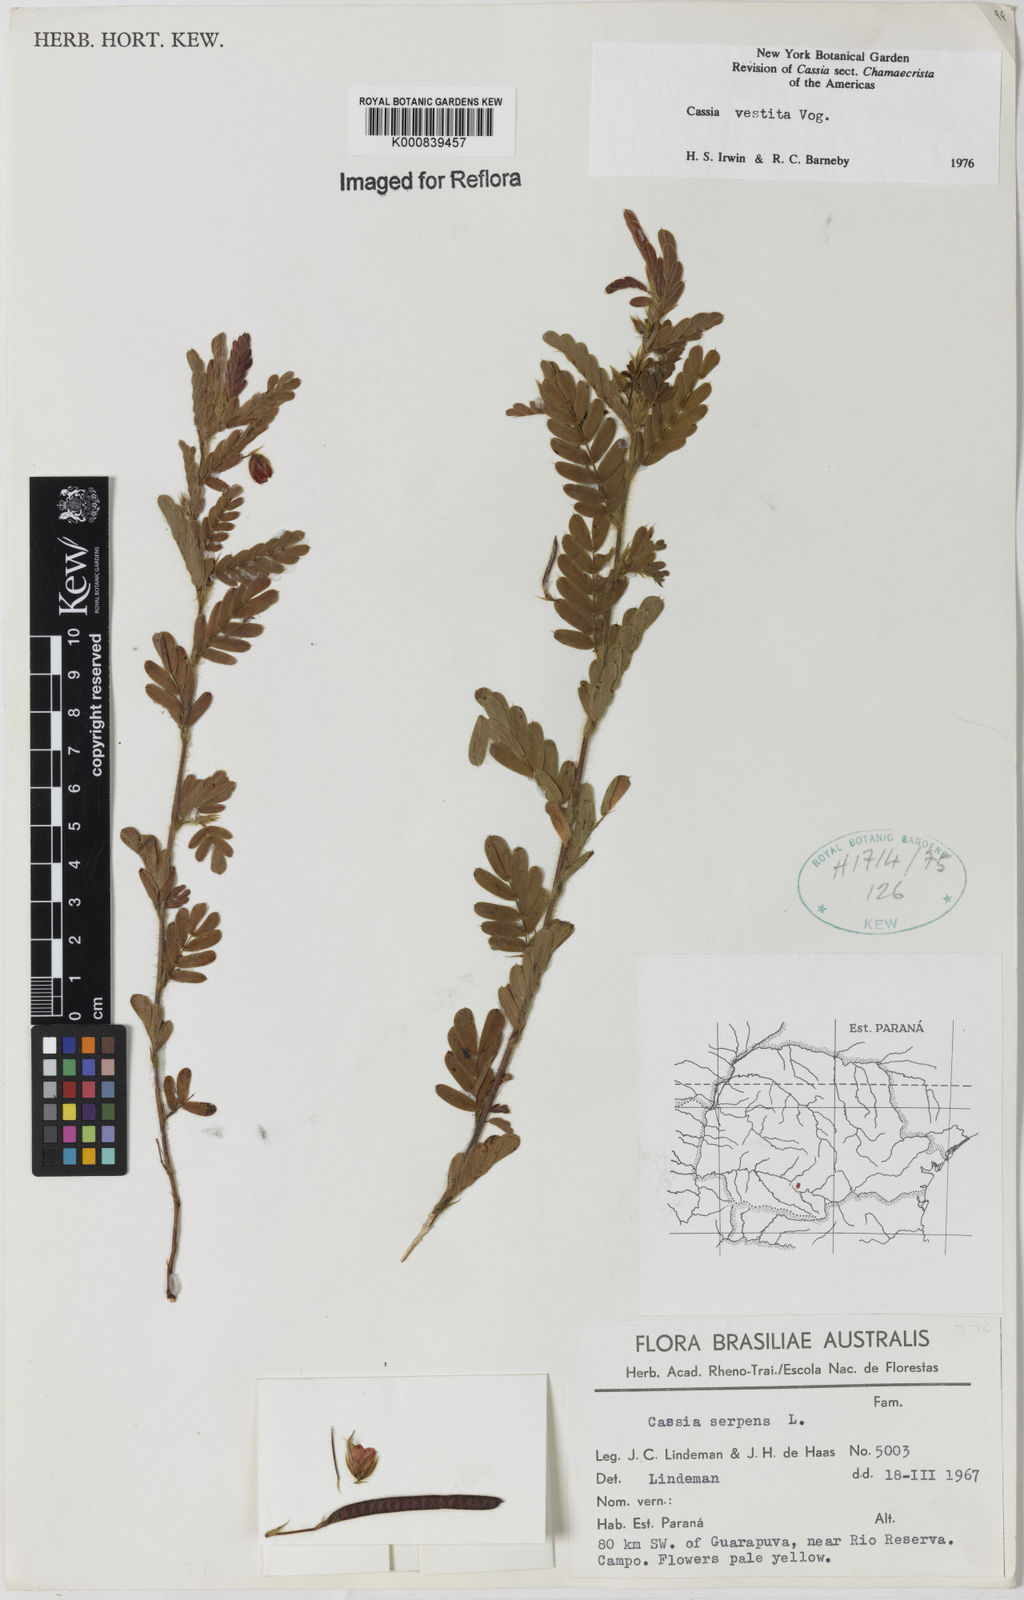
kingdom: Plantae
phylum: Tracheophyta
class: Magnoliopsida
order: Fabales
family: Fabaceae
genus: Chamaecrista
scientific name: Chamaecrista
